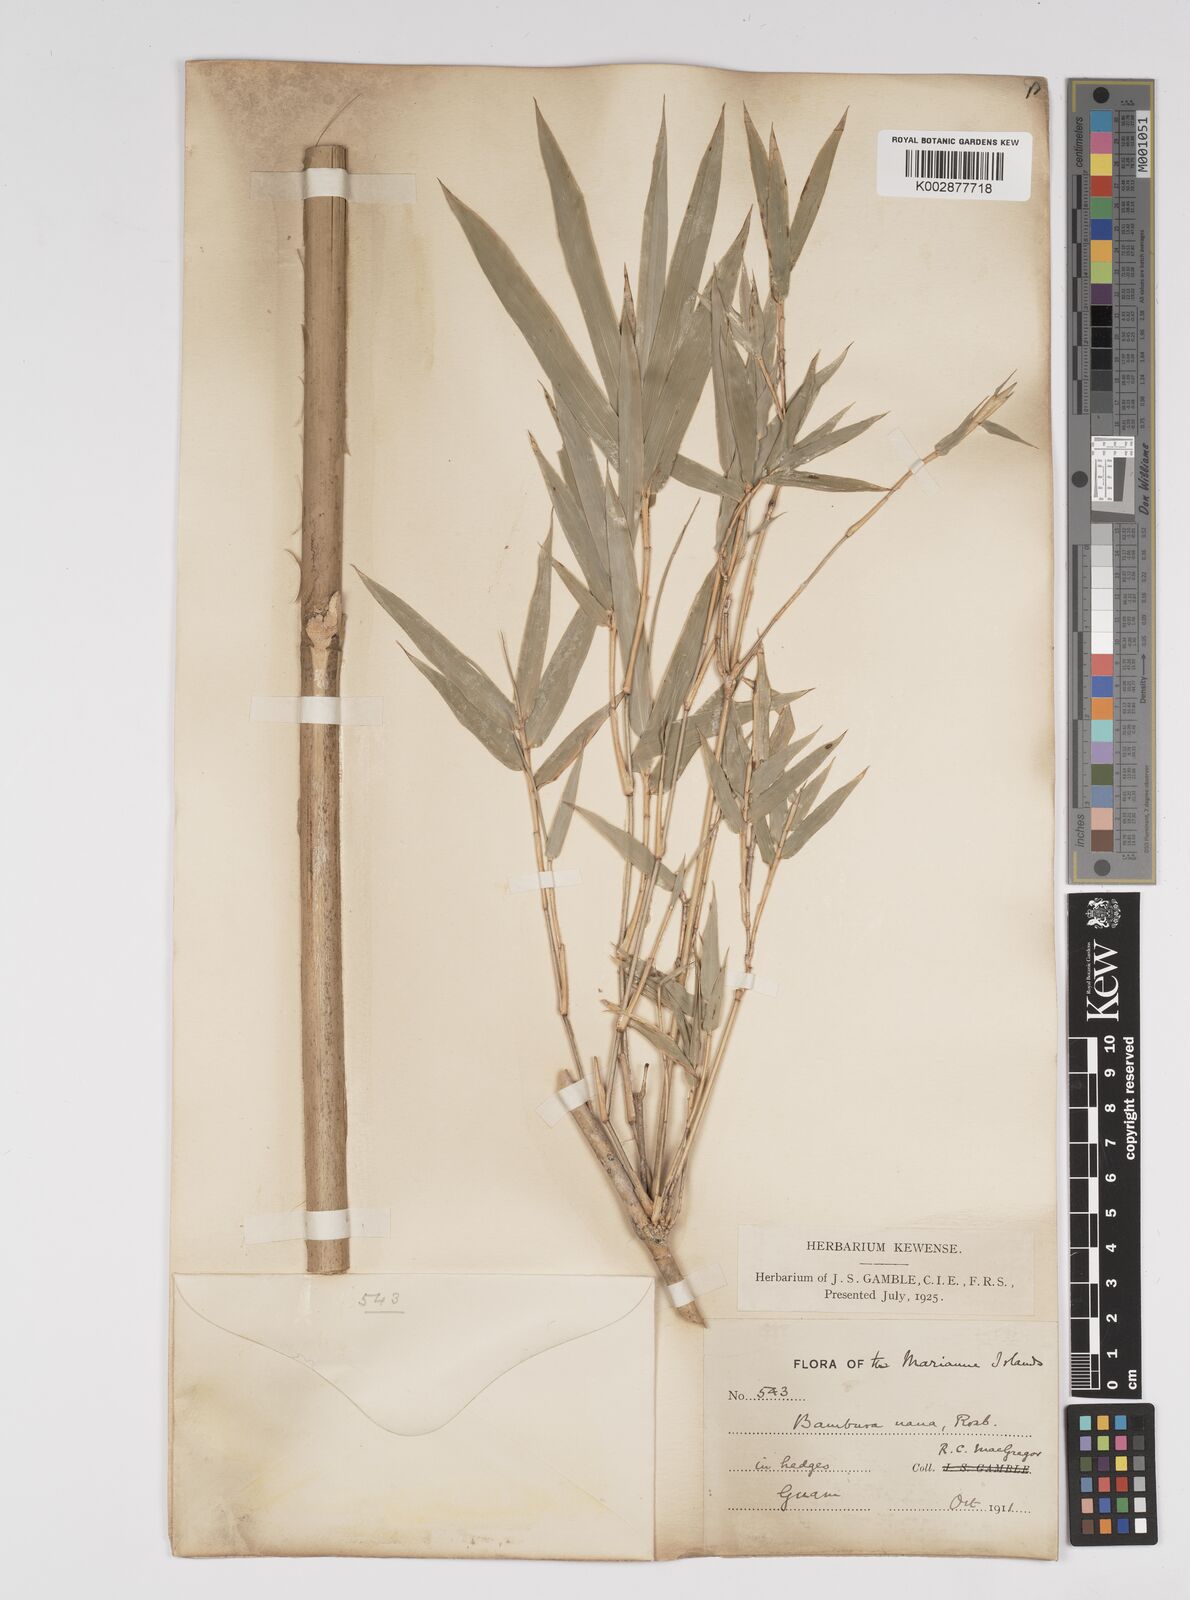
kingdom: Plantae
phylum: Tracheophyta
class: Liliopsida
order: Poales
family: Poaceae
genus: Bambusa
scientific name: Bambusa multiplex
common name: Hedge bamboo
